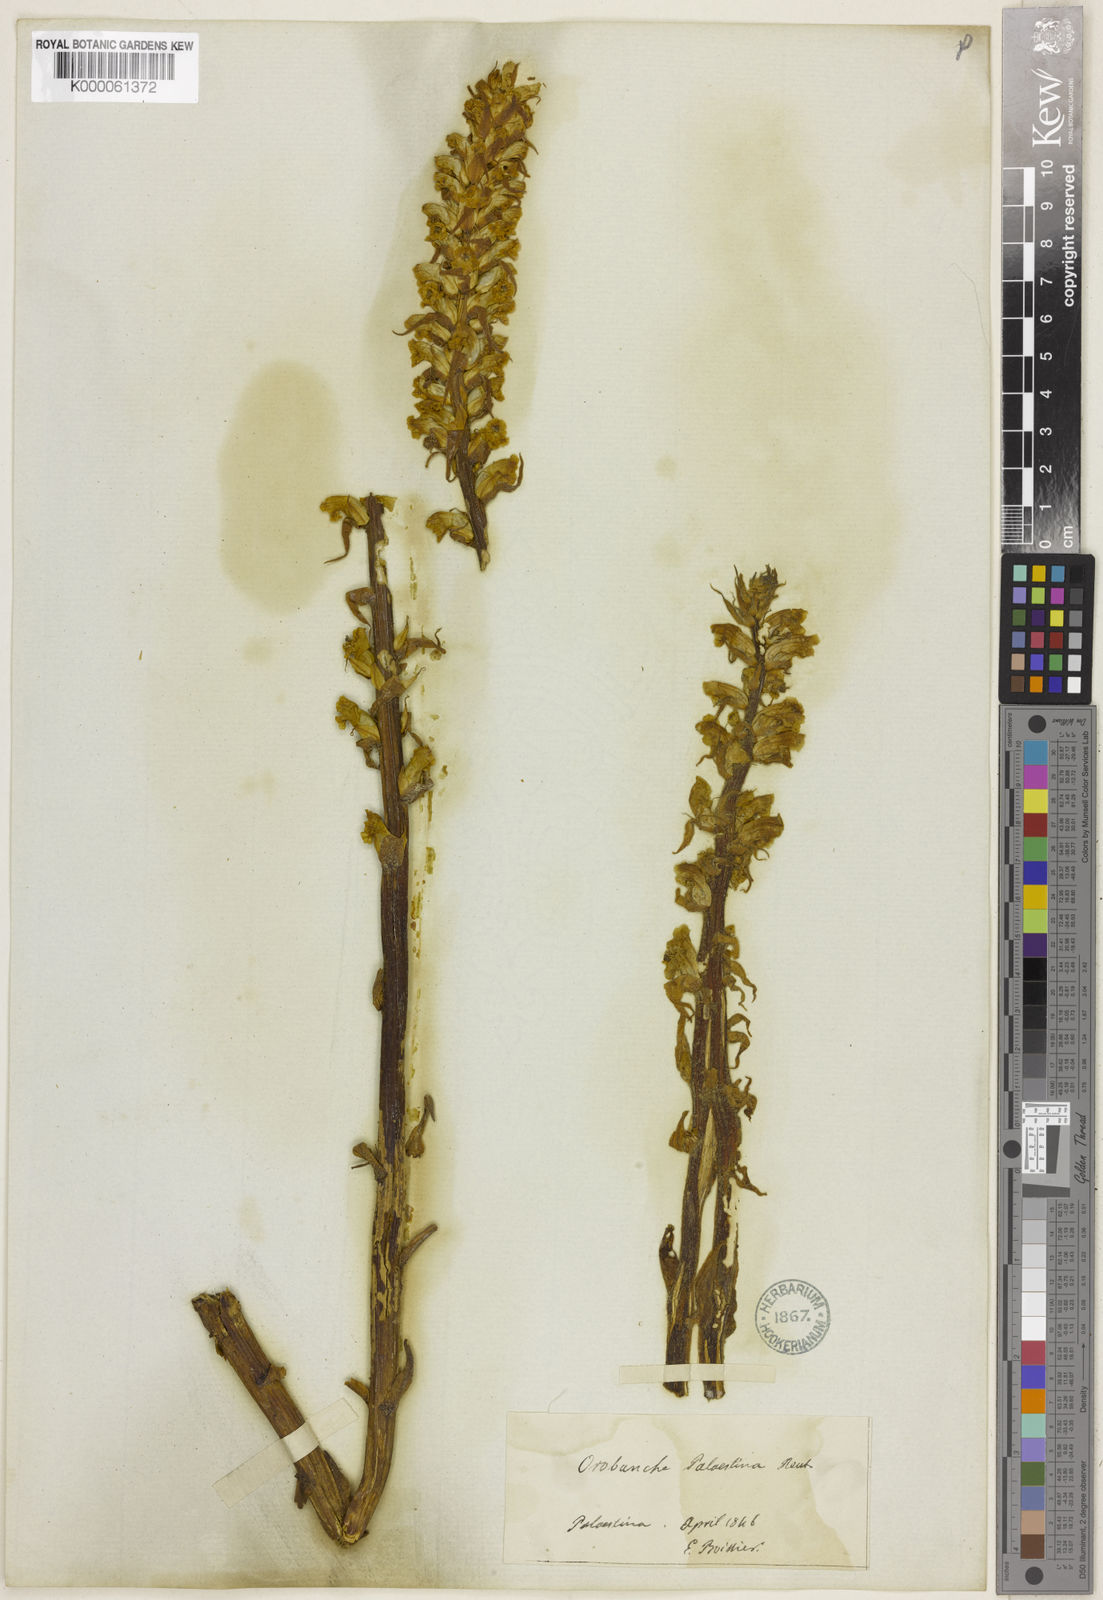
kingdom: Plantae
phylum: Tracheophyta
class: Magnoliopsida
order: Lamiales
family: Orobanchaceae
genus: Orobanche
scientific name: Orobanche palaestina
